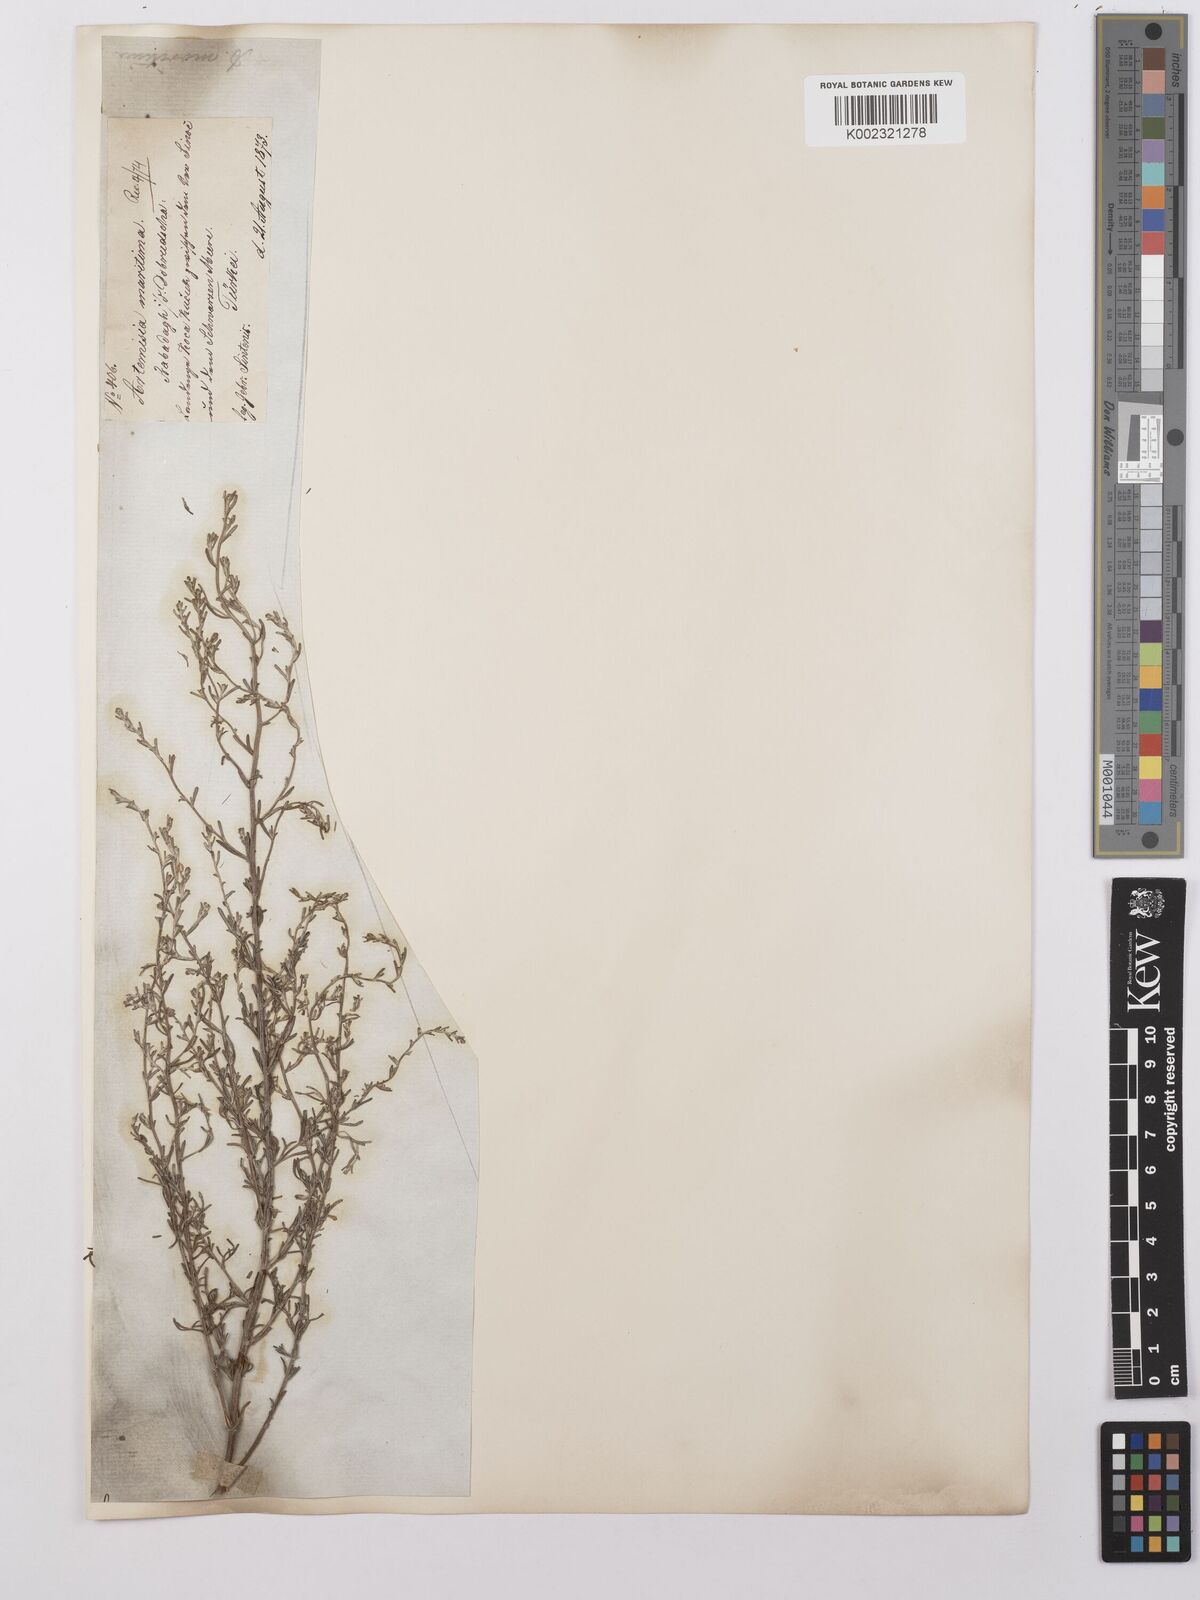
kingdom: Plantae
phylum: Tracheophyta
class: Magnoliopsida
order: Asterales
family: Asteraceae
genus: Artemisia
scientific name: Artemisia maritima
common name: Wormseed
